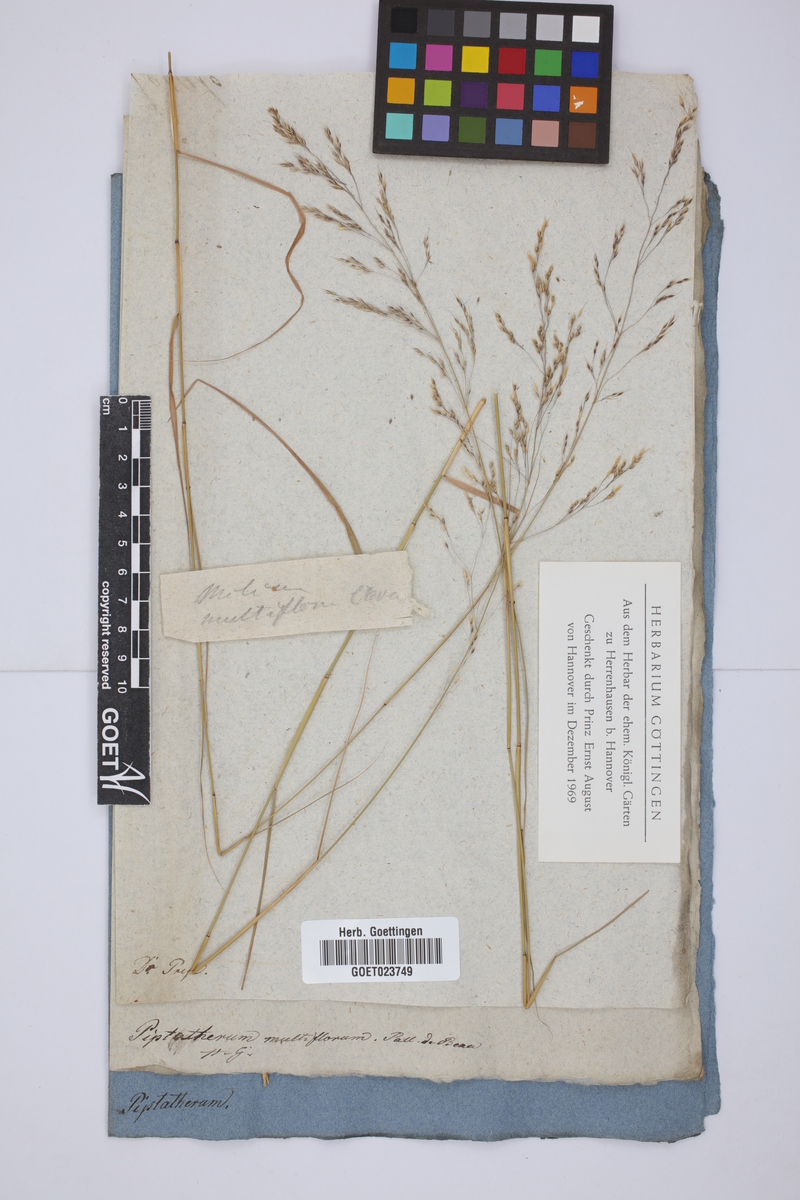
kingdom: Plantae
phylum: Tracheophyta
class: Liliopsida
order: Poales
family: Poaceae
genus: Oloptum
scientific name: Oloptum miliaceum
